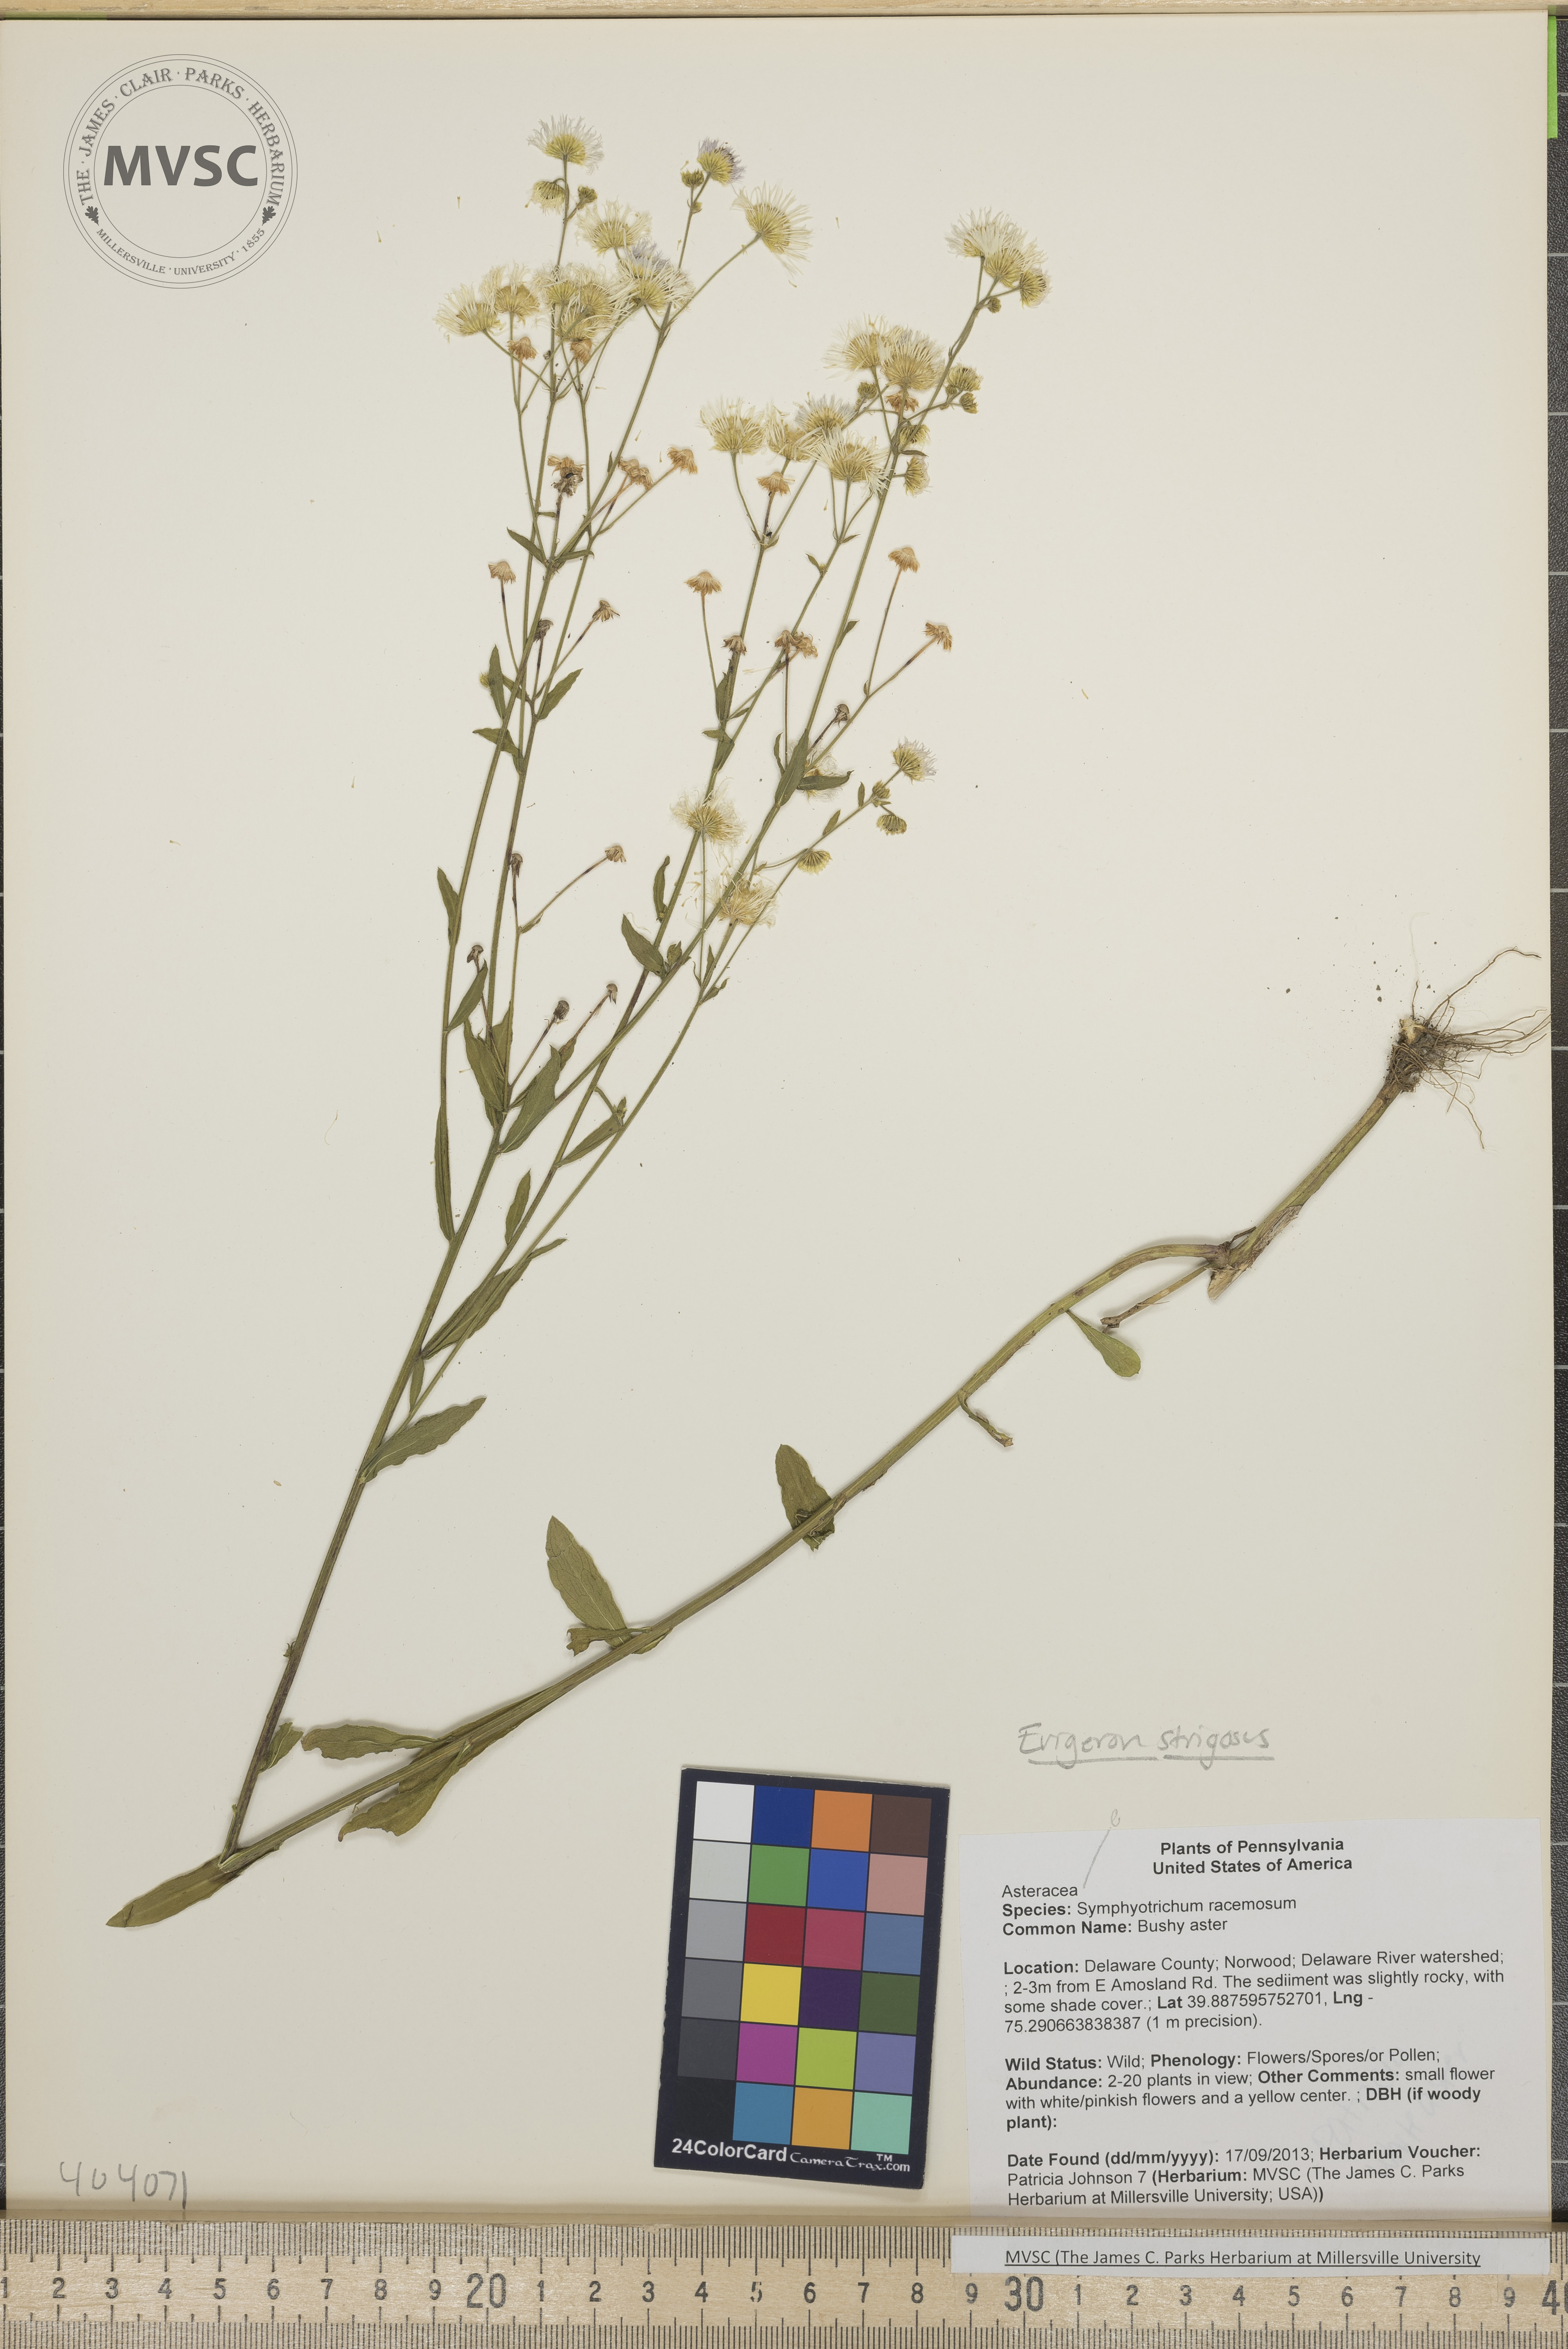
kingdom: Plantae
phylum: Tracheophyta
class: Magnoliopsida
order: Asterales
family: Asteraceae
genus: Erigeron
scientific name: Erigeron strigosus
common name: Daisy fleabane
